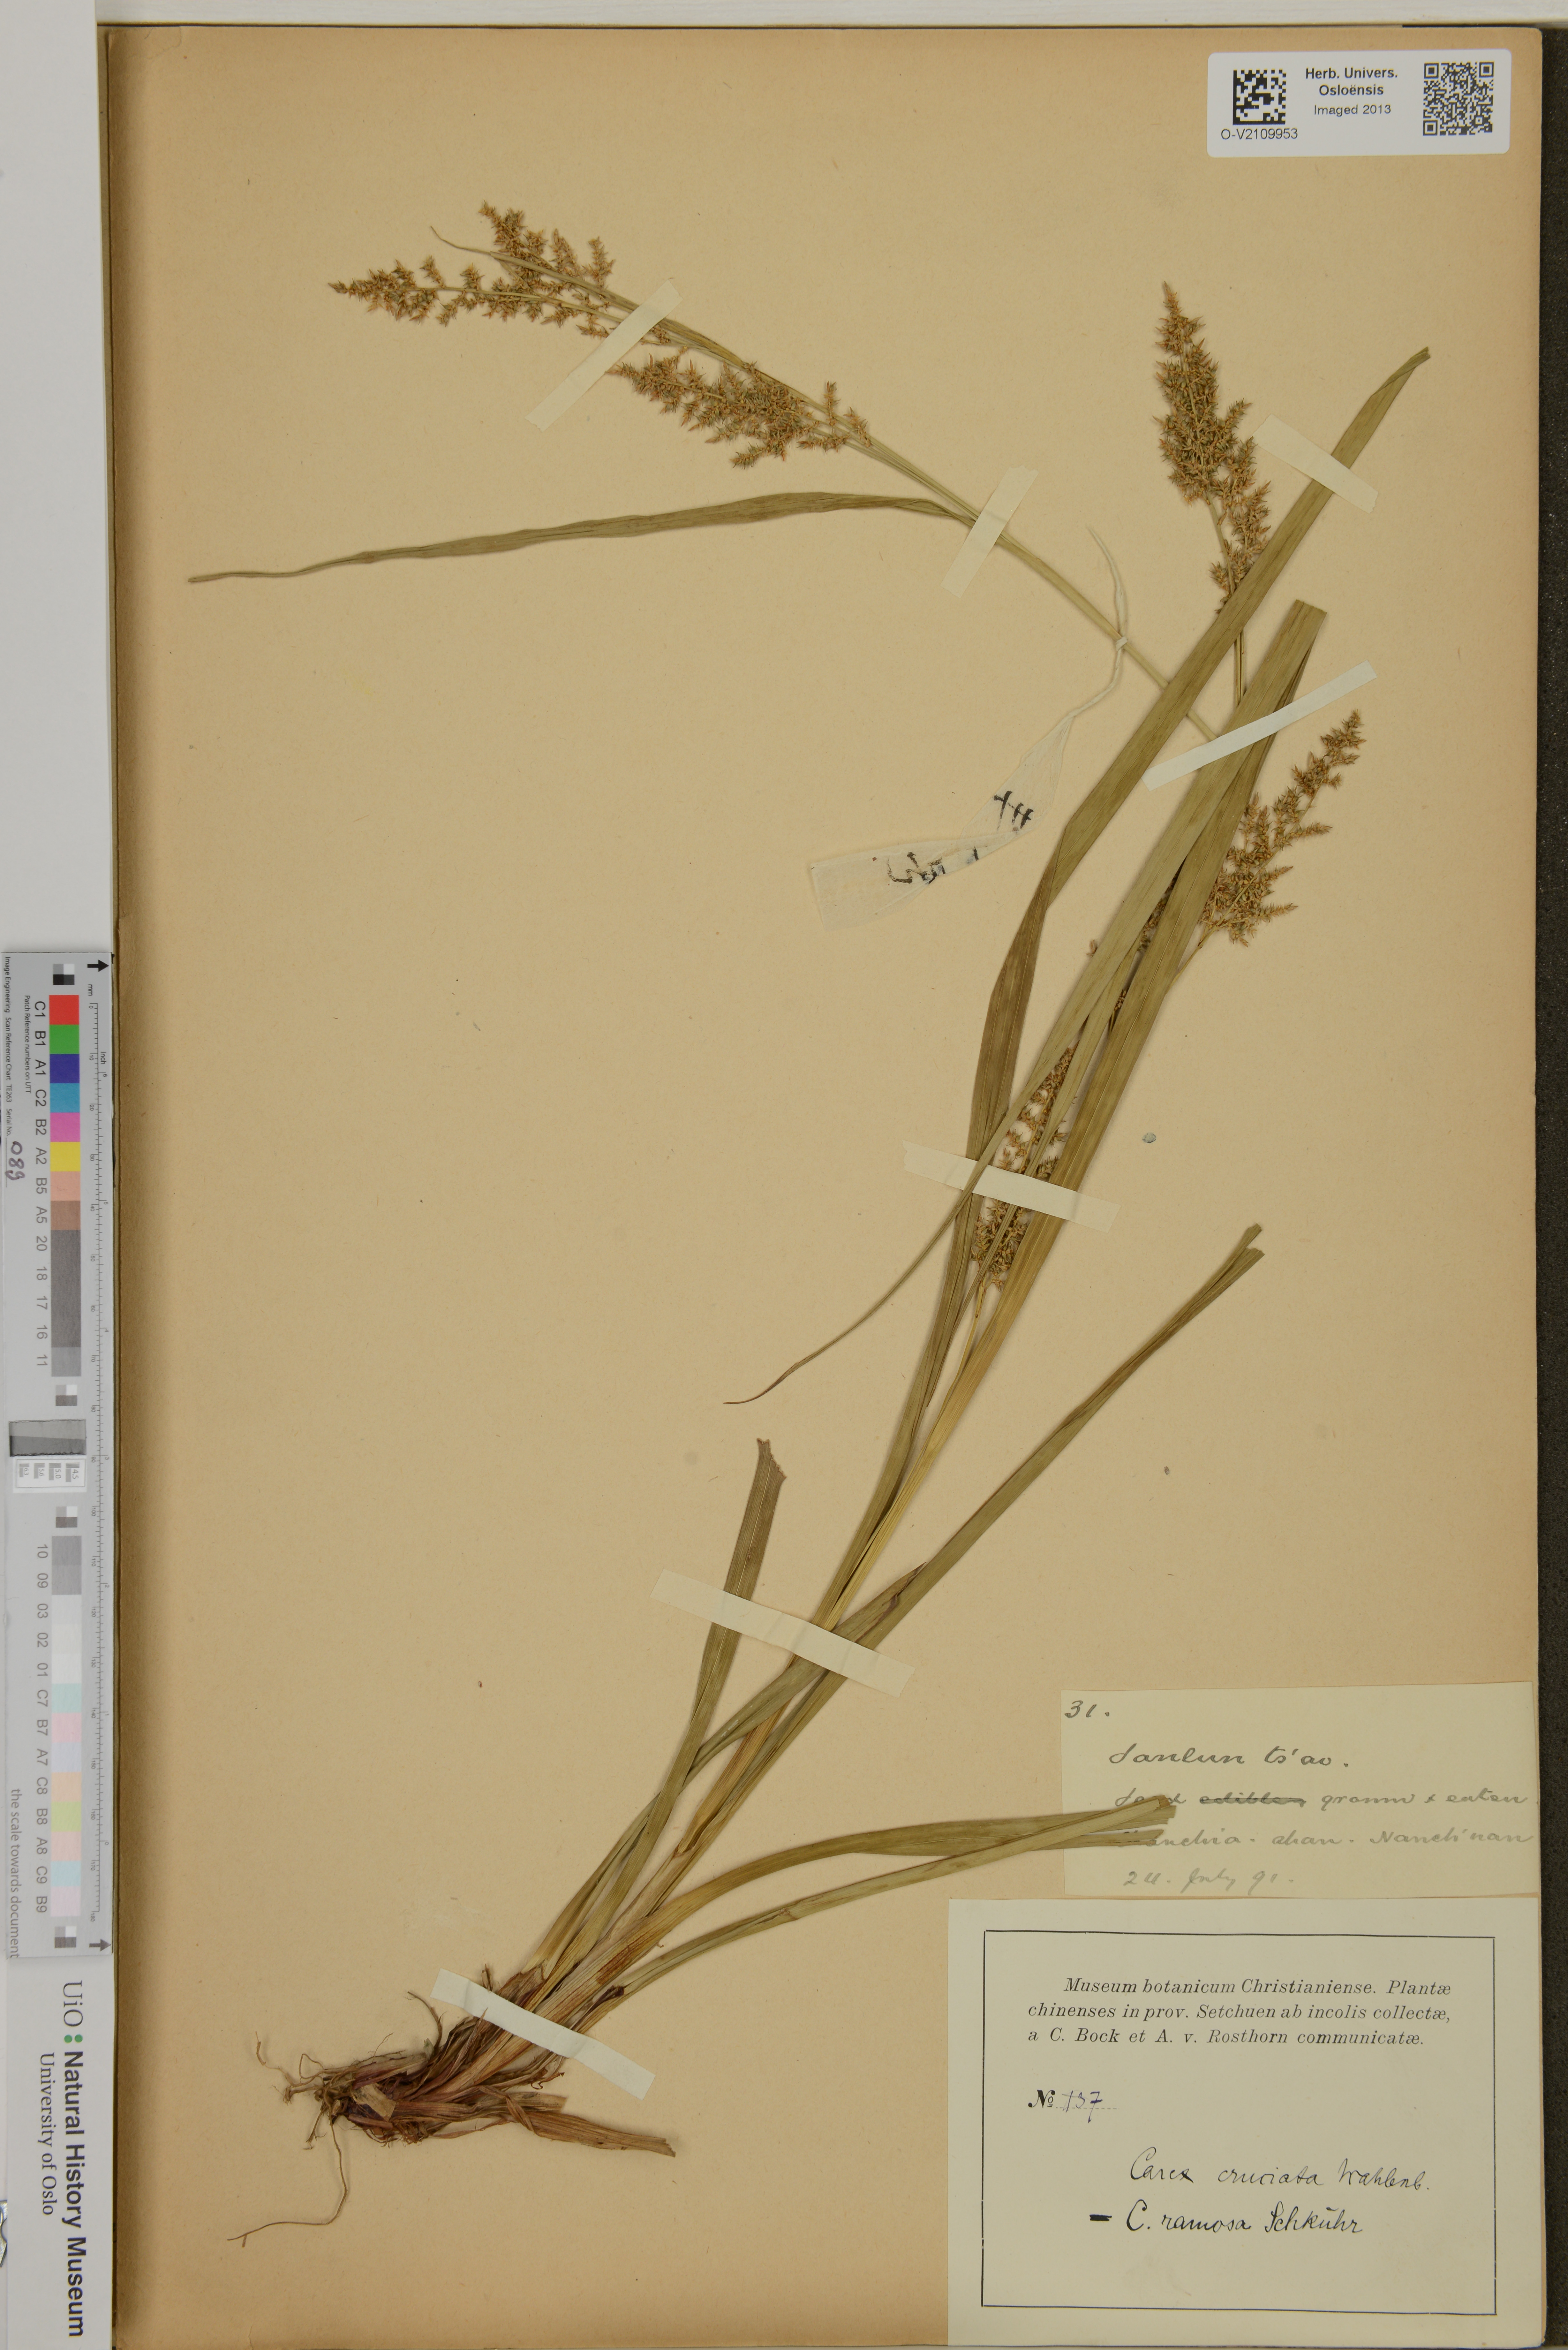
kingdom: Plantae
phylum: Tracheophyta
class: Liliopsida
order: Poales
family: Cyperaceae
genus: Carex
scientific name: Carex cruciata
